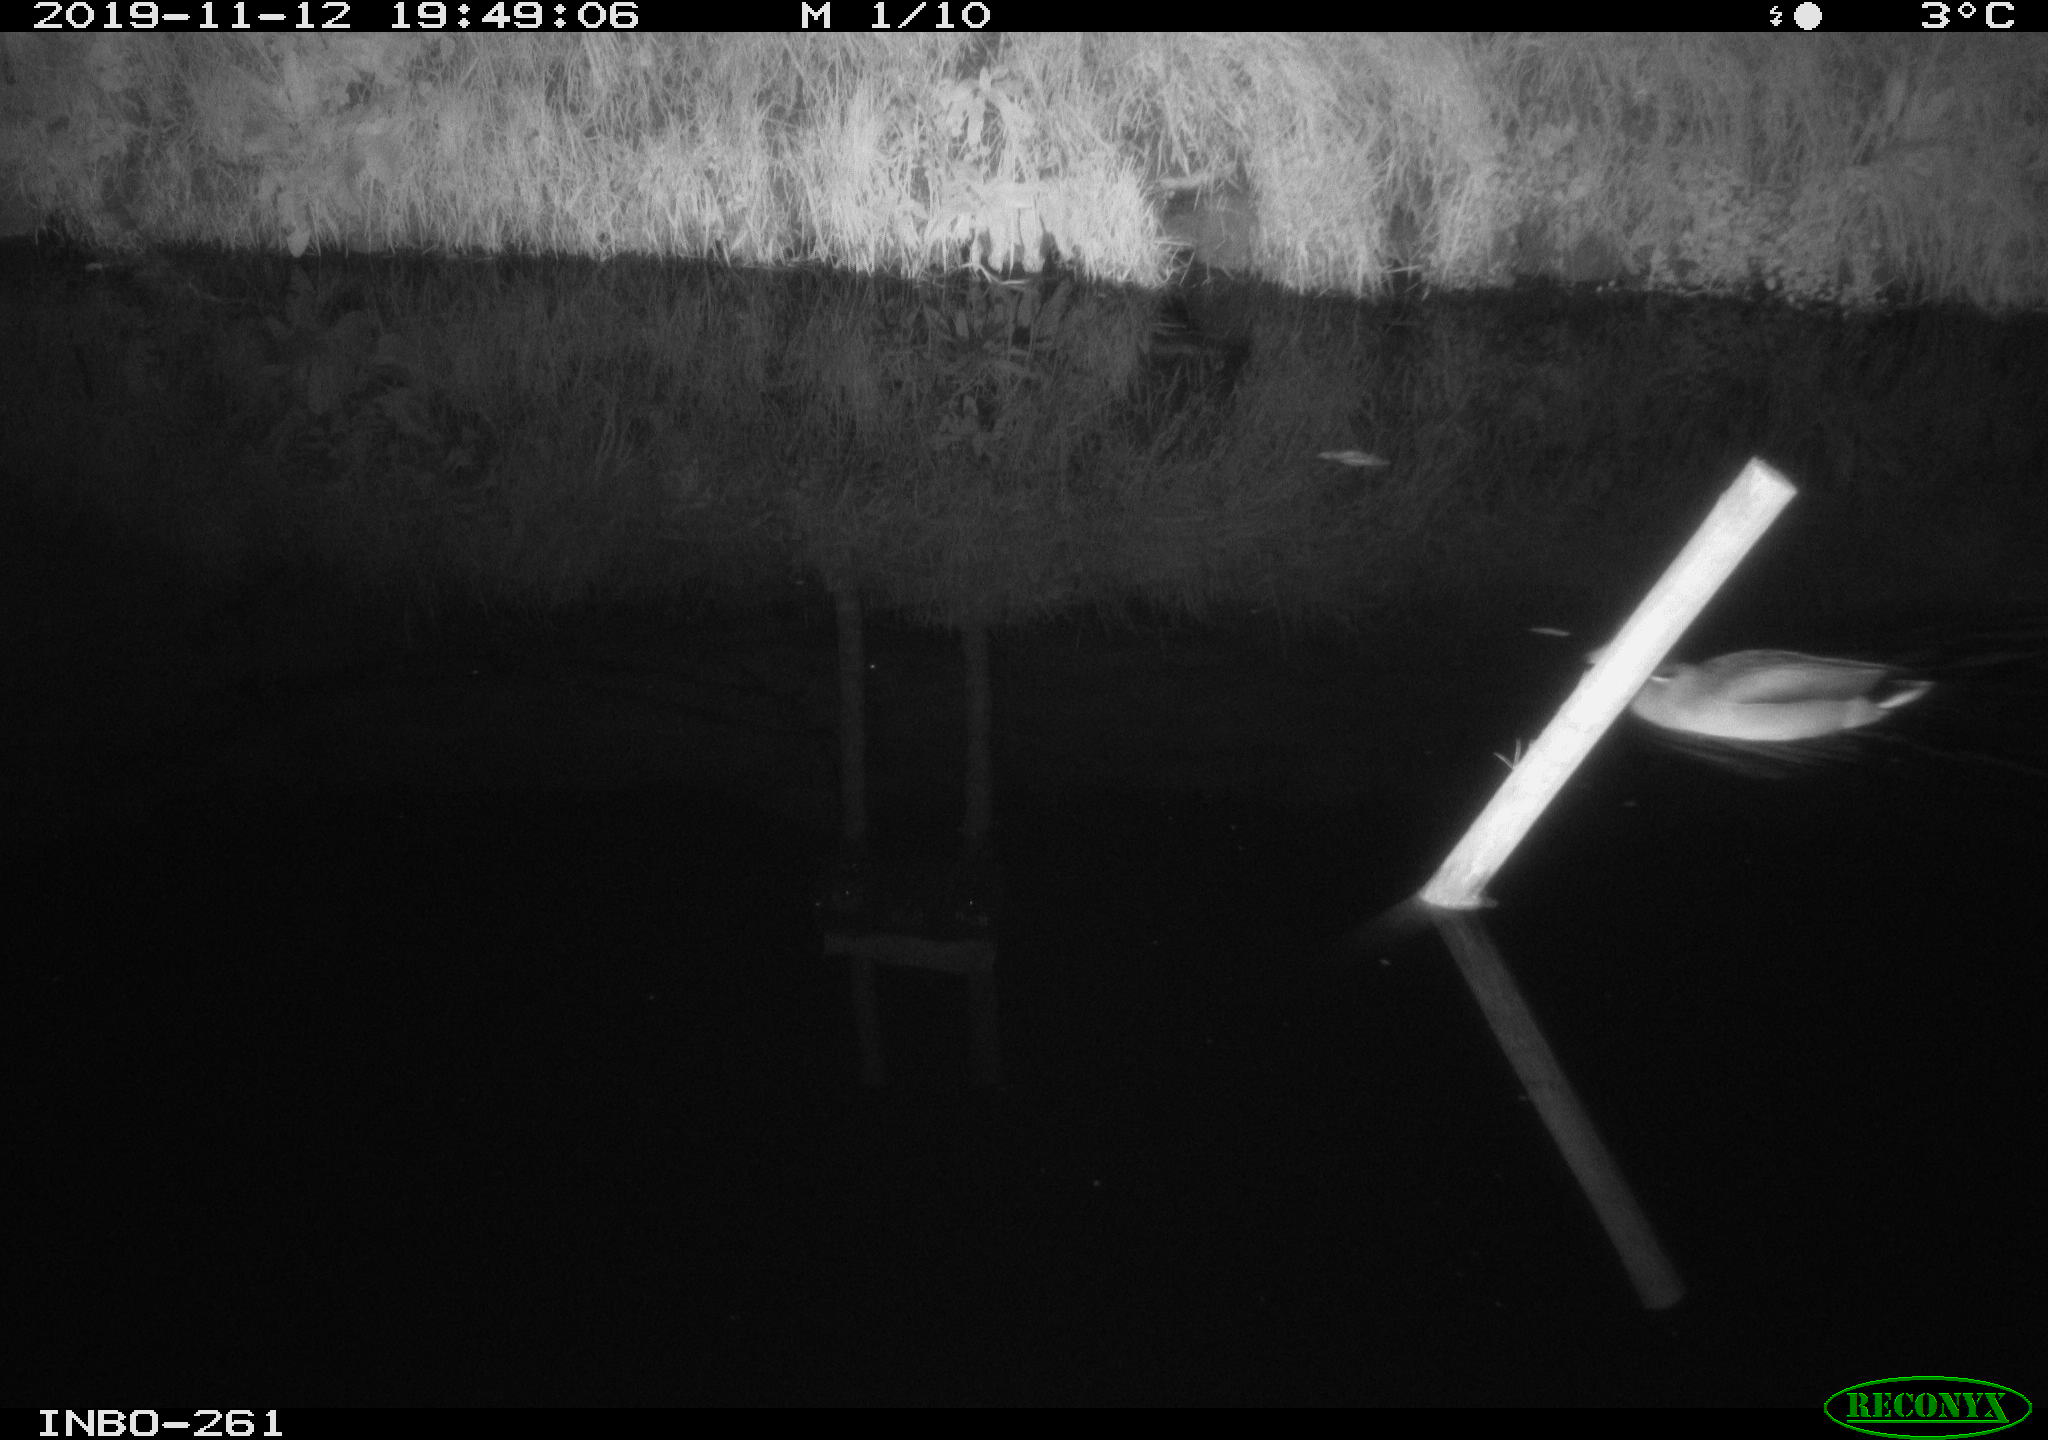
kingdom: Animalia
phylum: Chordata
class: Aves
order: Anseriformes
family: Anatidae
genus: Anas
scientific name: Anas platyrhynchos
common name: Mallard
